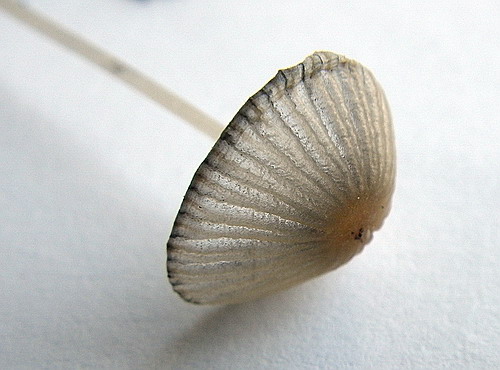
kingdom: Fungi
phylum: Basidiomycota
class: Agaricomycetes
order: Agaricales
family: Psathyrellaceae
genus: Tulosesus
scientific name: Tulosesus congregatus
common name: klynge-blækhat
